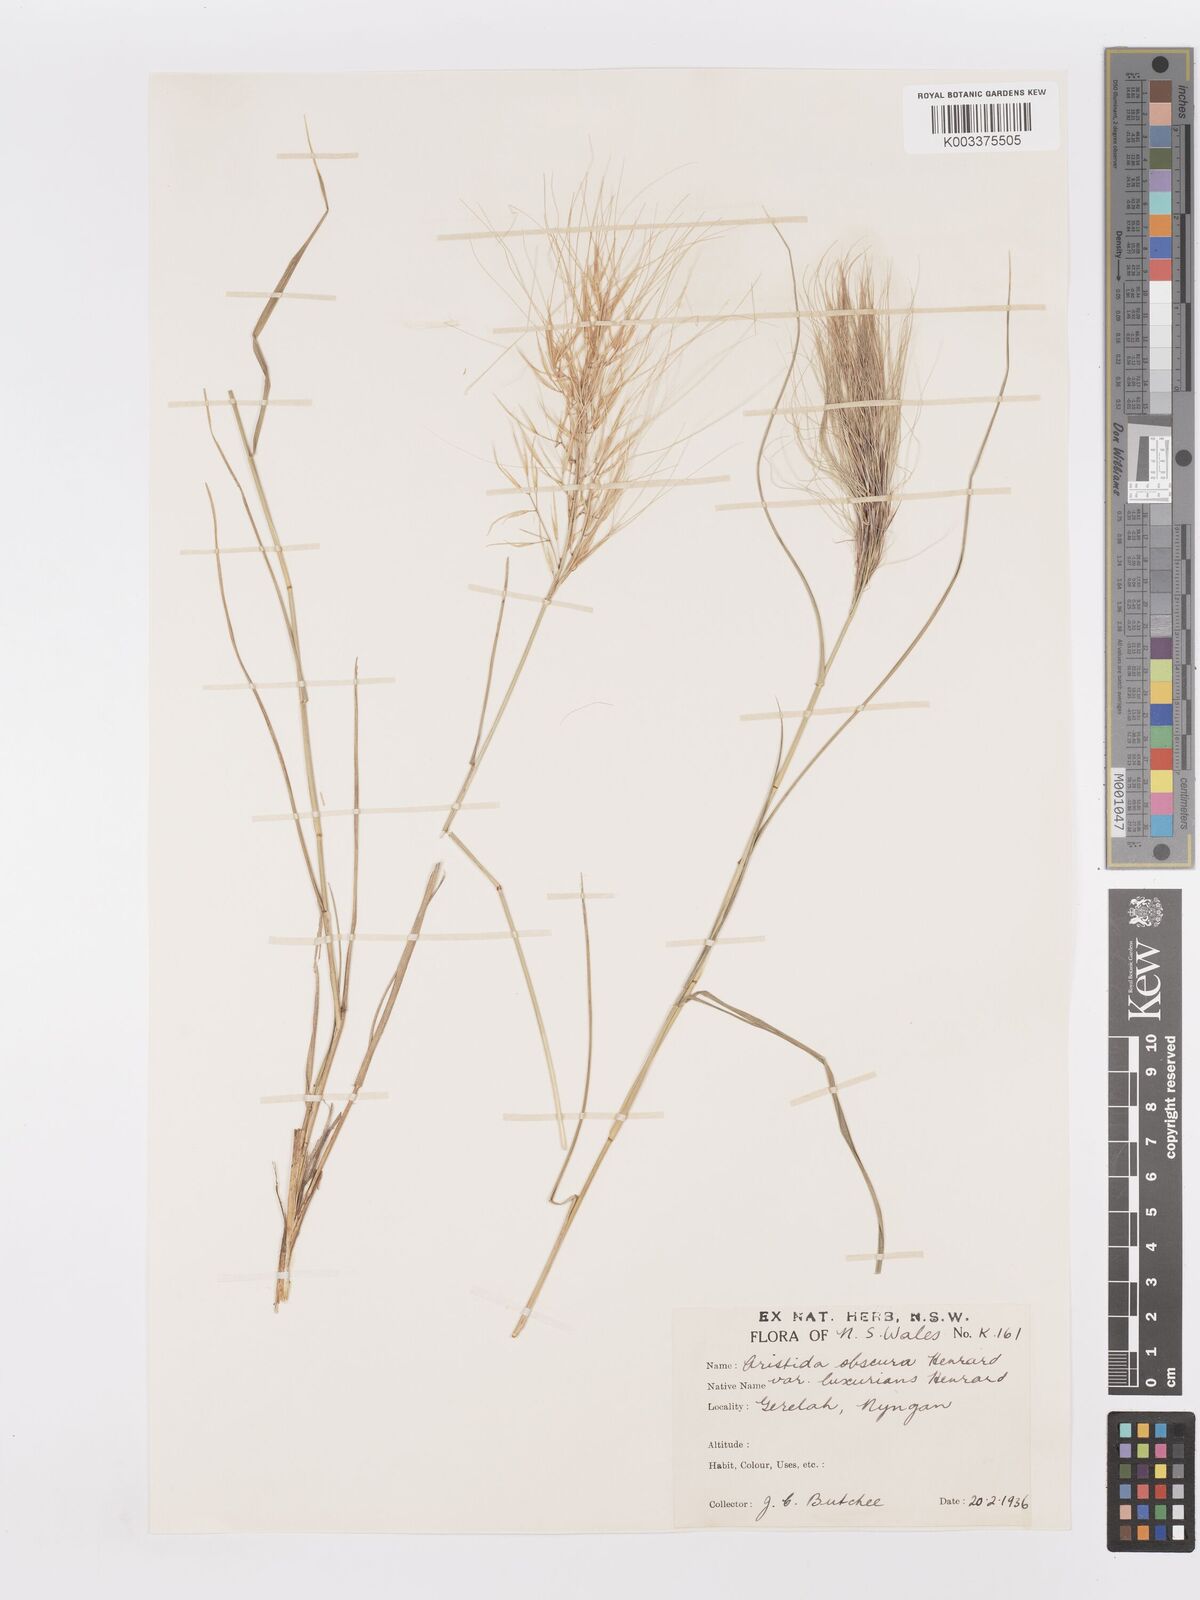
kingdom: Plantae
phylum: Tracheophyta
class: Liliopsida
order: Poales
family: Poaceae
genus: Aristida
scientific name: Aristida obscura
